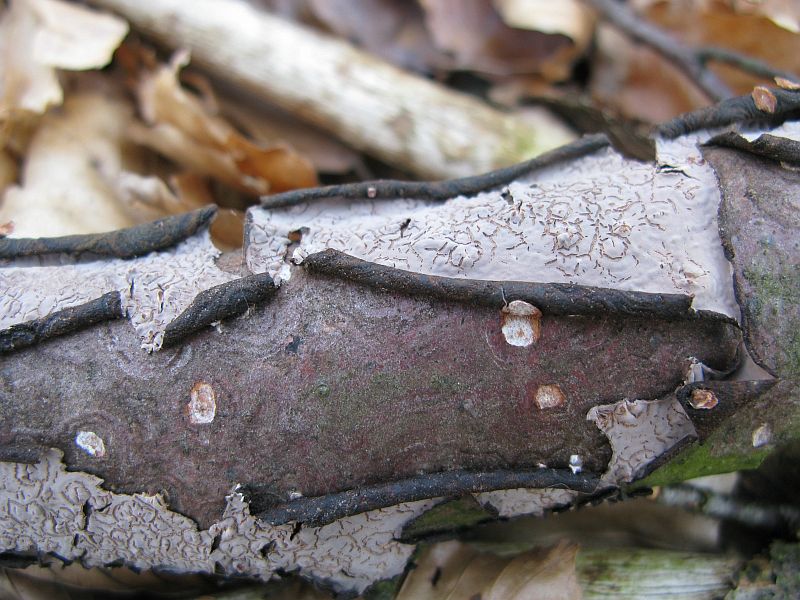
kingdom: Fungi
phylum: Basidiomycota
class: Agaricomycetes
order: Russulales
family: Peniophoraceae
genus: Peniophora
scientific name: Peniophora quercina
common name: ege-voksskind
